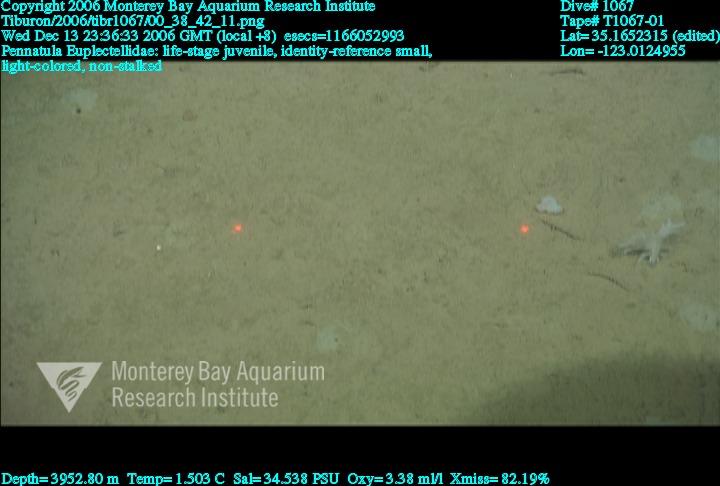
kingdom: Animalia
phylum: Porifera
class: Hexactinellida
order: Lyssacinosida
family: Euplectellidae
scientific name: Euplectellidae
